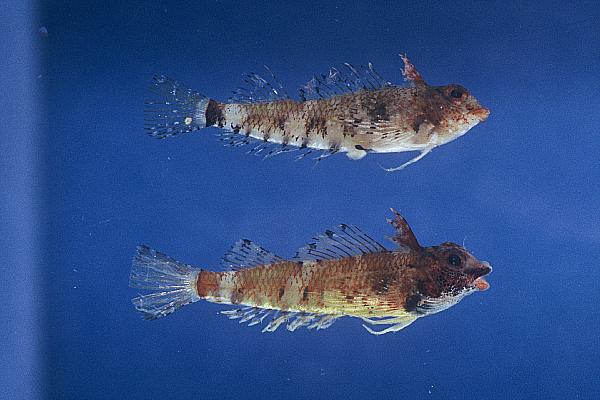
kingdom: Animalia
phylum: Chordata
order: Perciformes
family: Tripterygiidae
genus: Enneapterygius
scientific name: Enneapterygius ventermaculus
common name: Blotched triplefin
